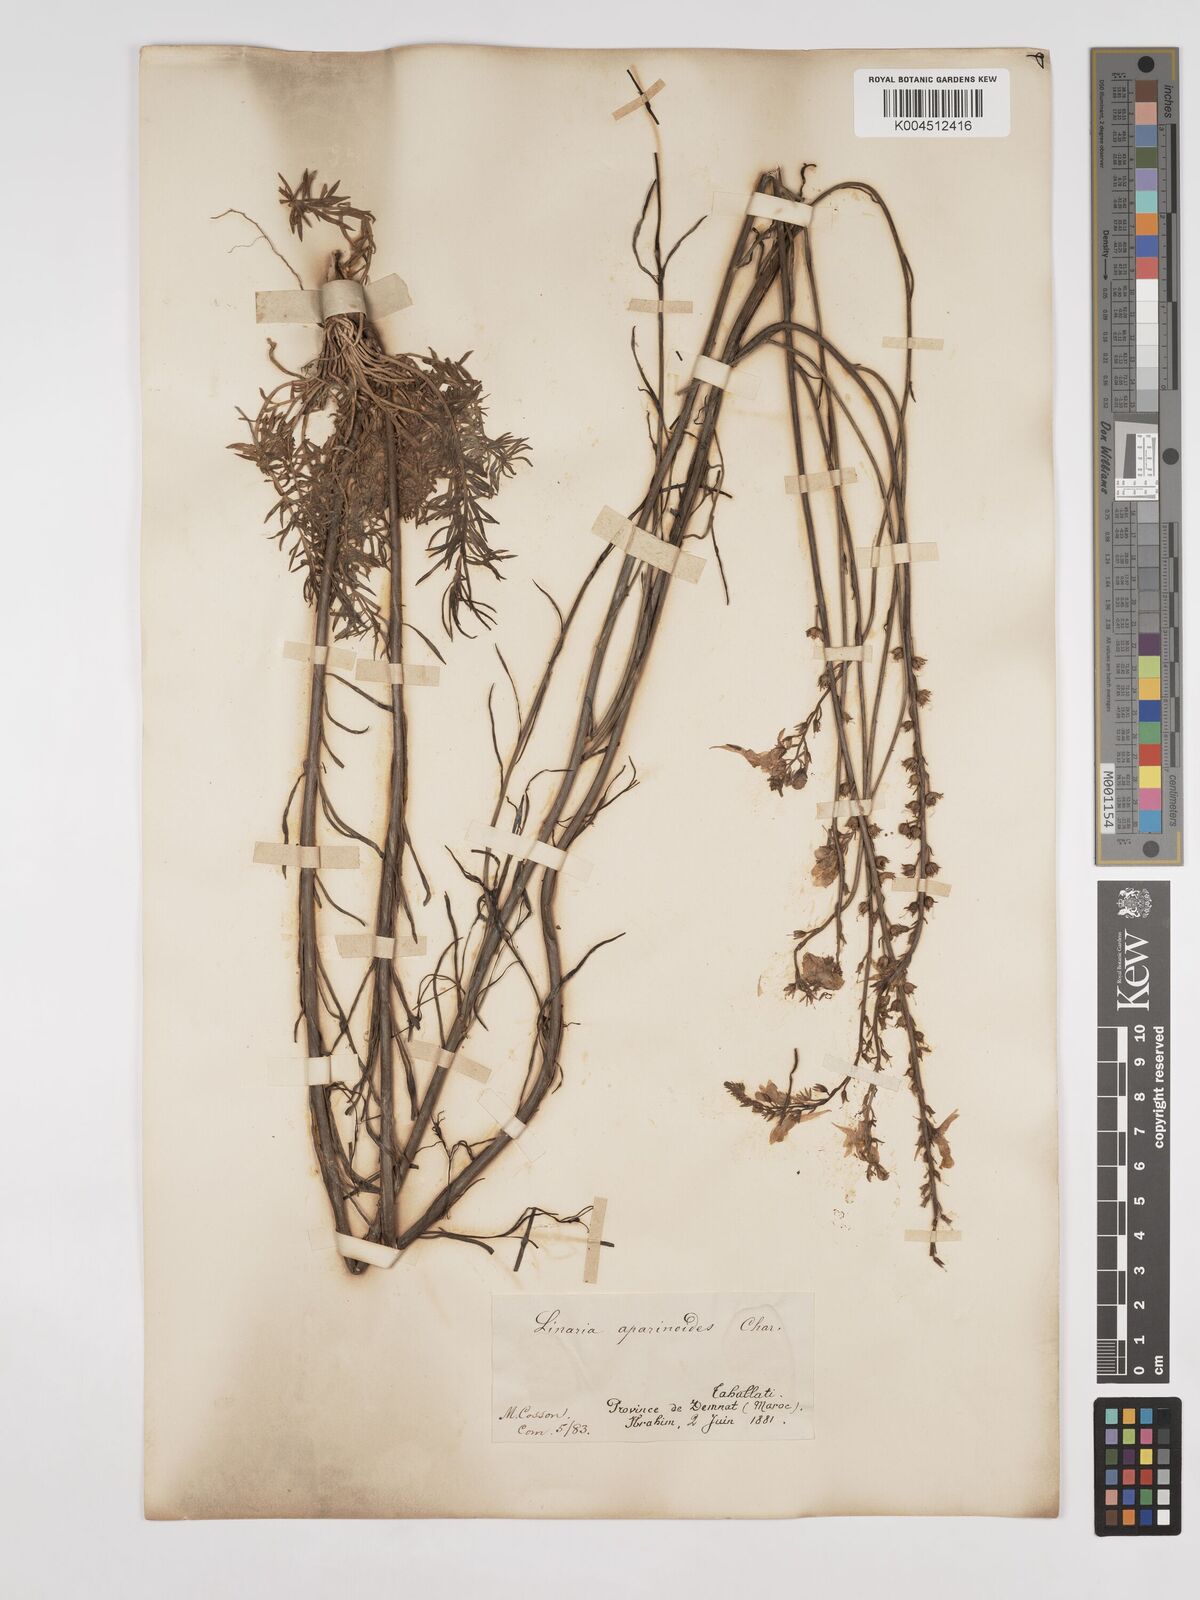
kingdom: Plantae
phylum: Tracheophyta
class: Magnoliopsida
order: Lamiales
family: Plantaginaceae
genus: Linaria
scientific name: Linaria multicaulis
